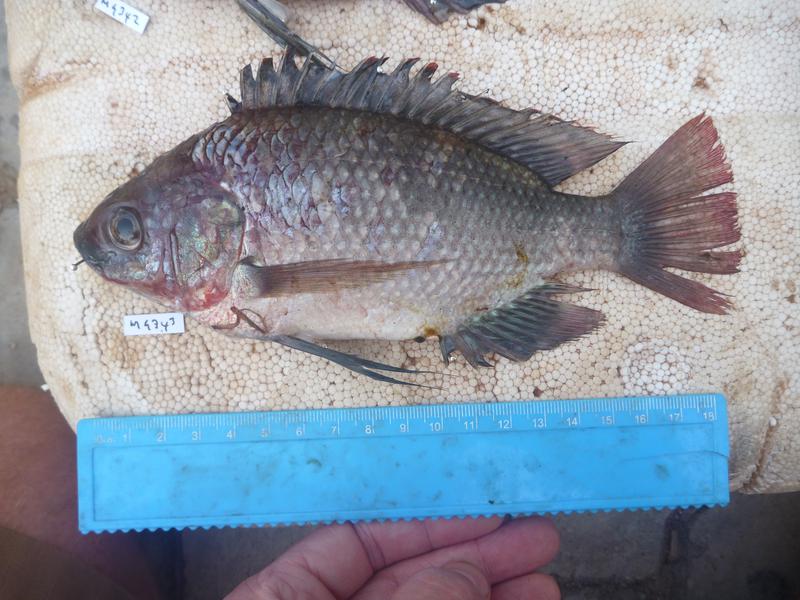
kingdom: Animalia
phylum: Chordata
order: Perciformes
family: Cichlidae
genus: Oreochromis
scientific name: Oreochromis esculentus
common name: Carp
